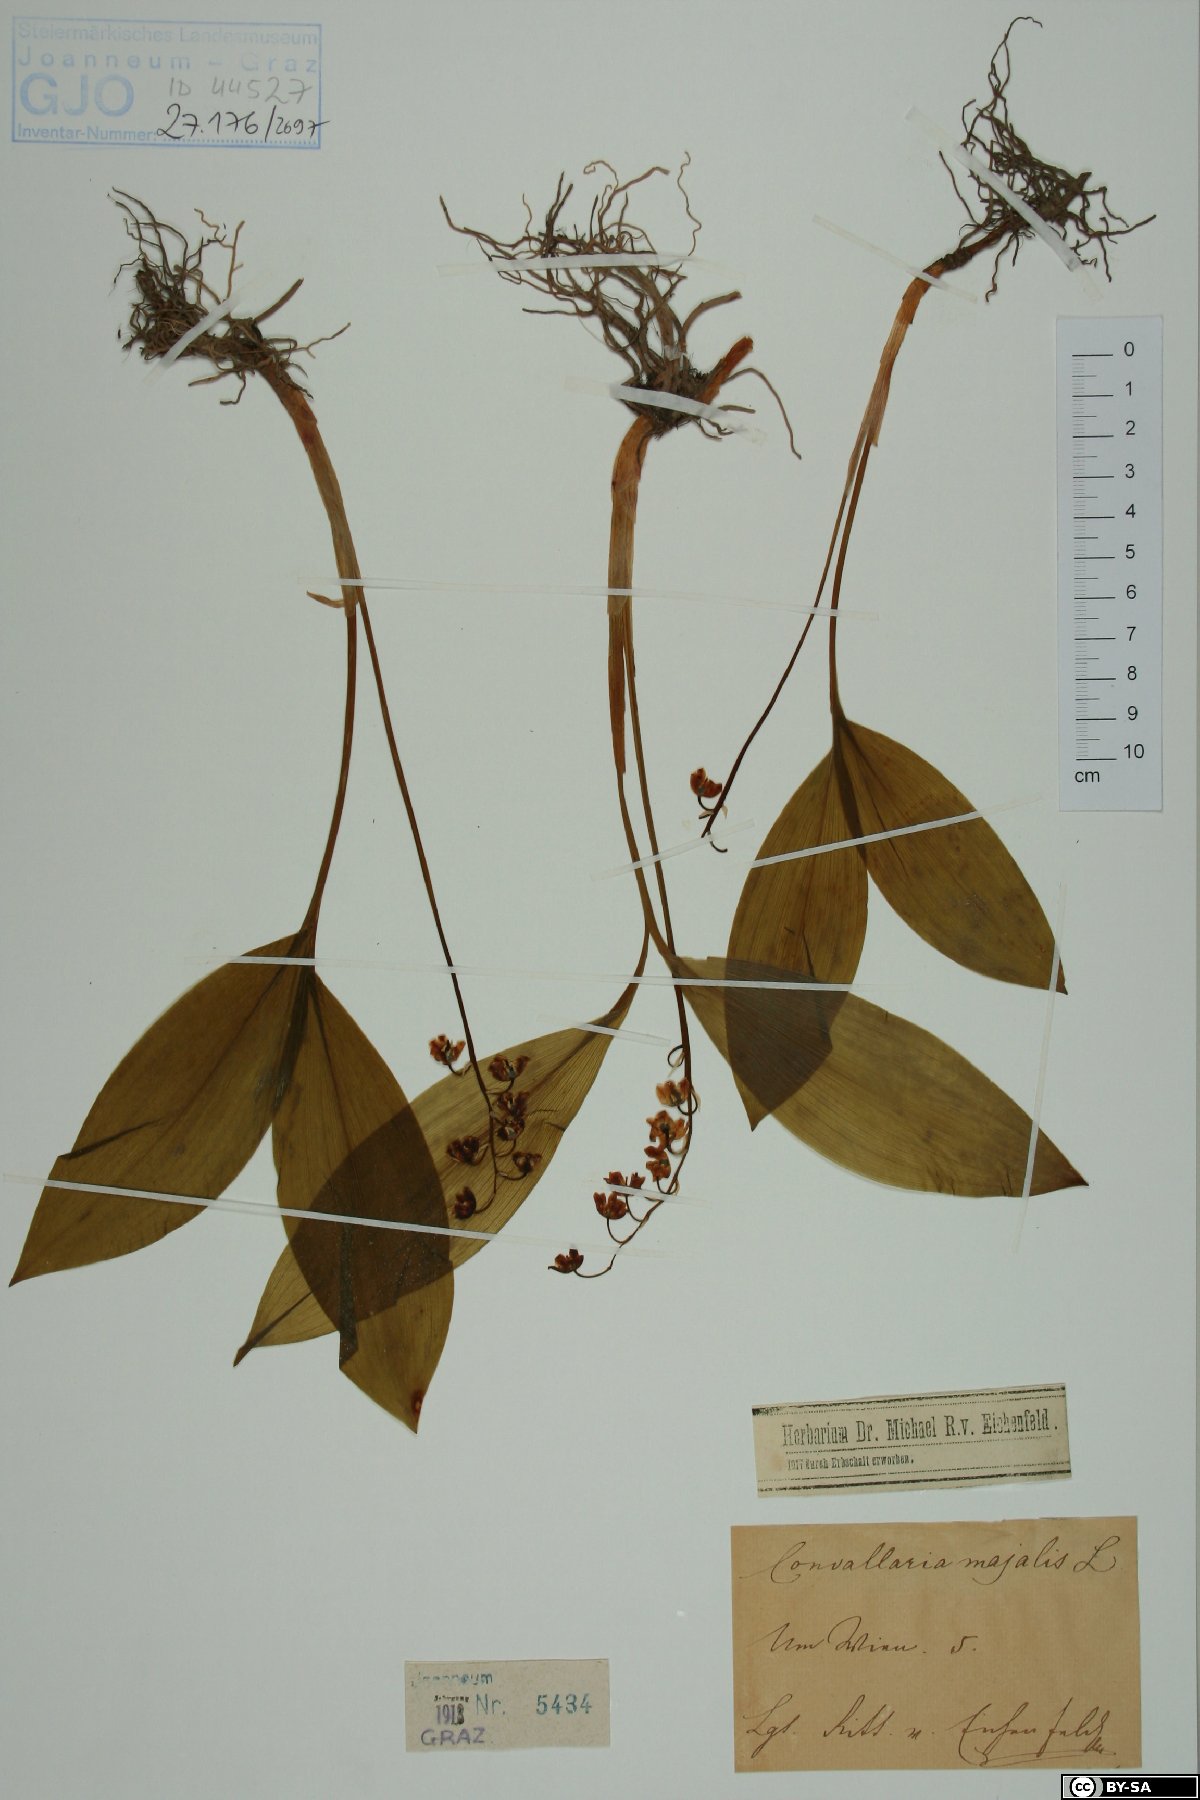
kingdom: Plantae
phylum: Tracheophyta
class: Liliopsida
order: Asparagales
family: Asparagaceae
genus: Convallaria
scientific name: Convallaria majalis
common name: Lily-of-the-valley
